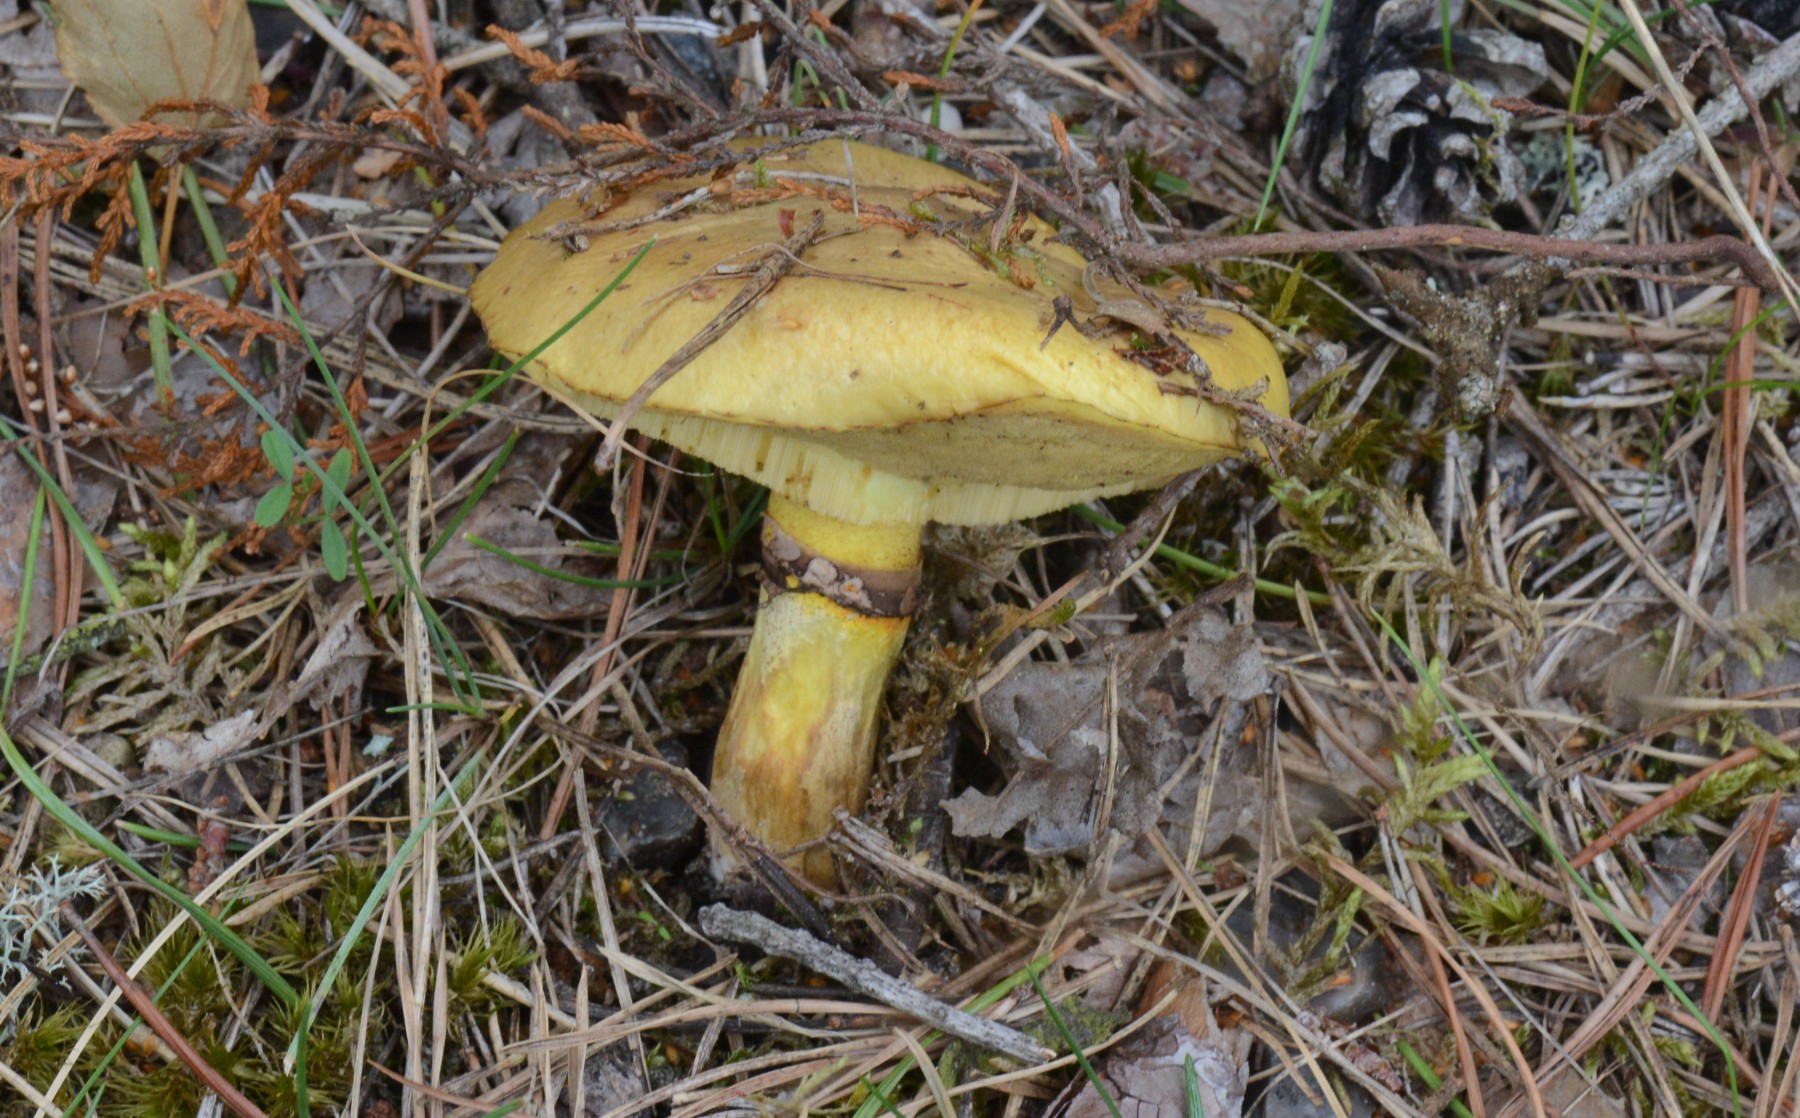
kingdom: Fungi
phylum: Basidiomycota
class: Agaricomycetes
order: Boletales
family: Suillaceae
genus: Suillus
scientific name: Suillus grevillei
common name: lærke-slimrørhat
